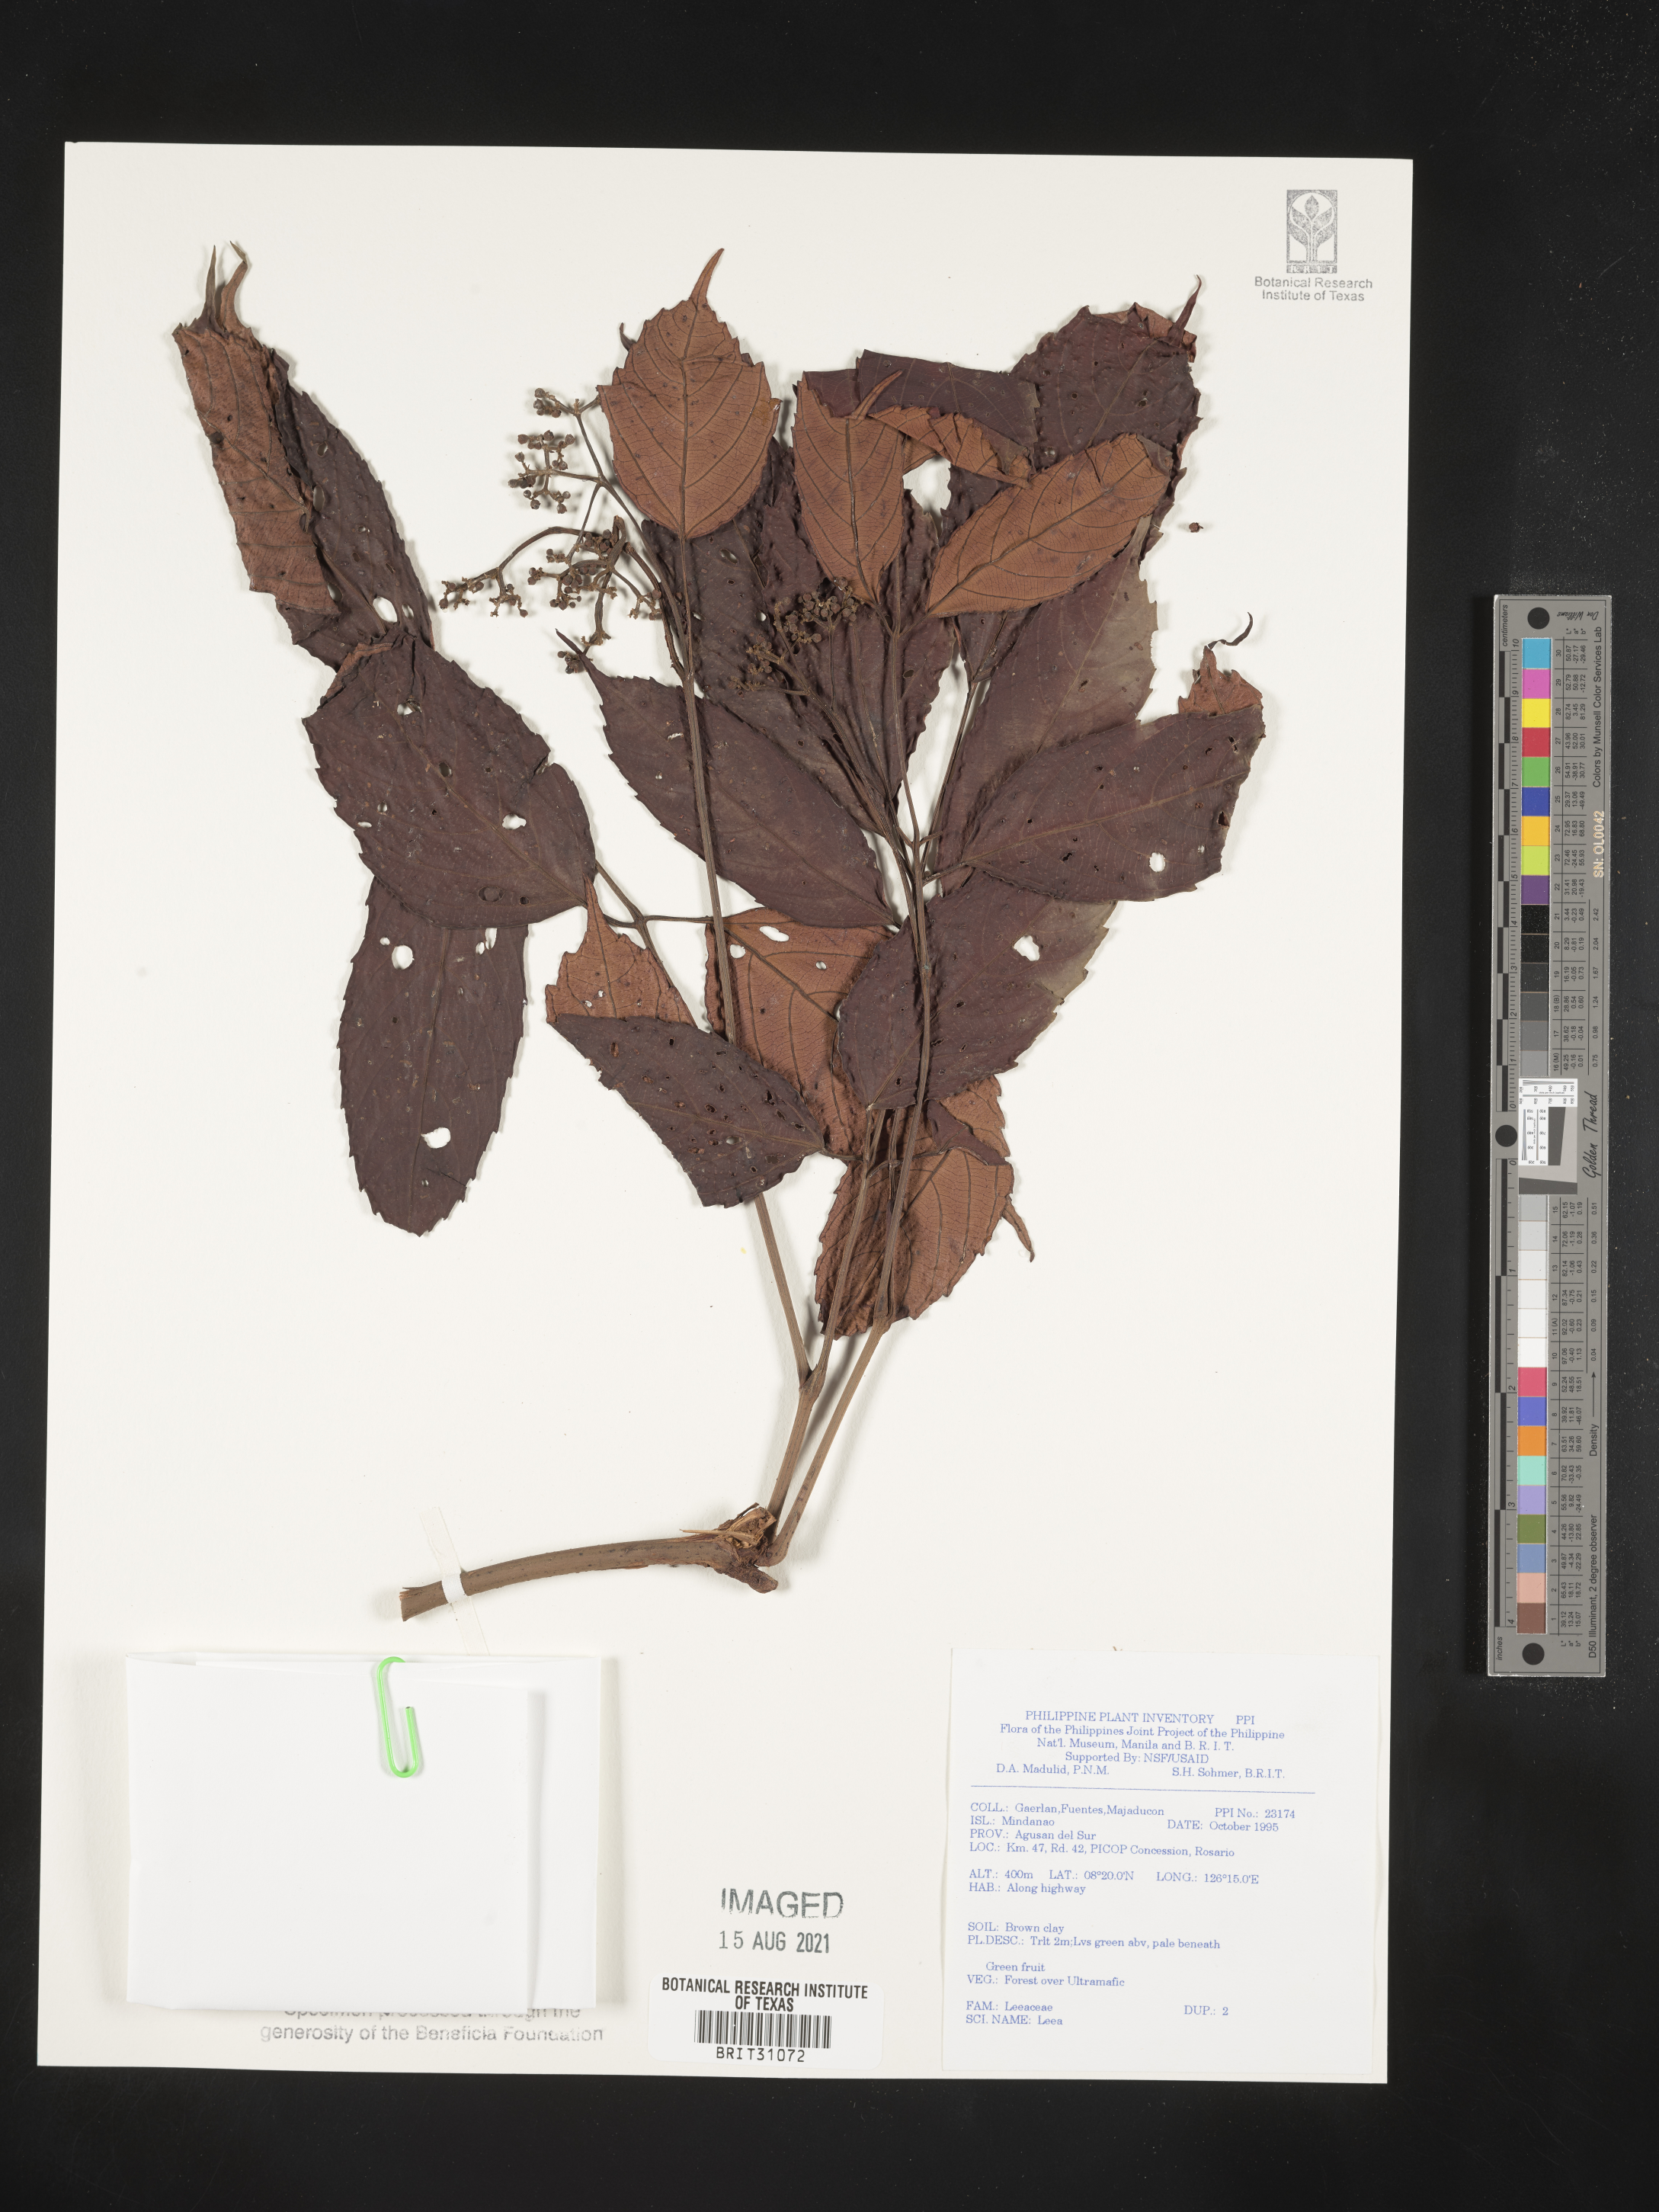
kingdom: Plantae
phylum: Tracheophyta
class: Magnoliopsida
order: Vitales
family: Vitaceae
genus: Leea
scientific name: Leea
